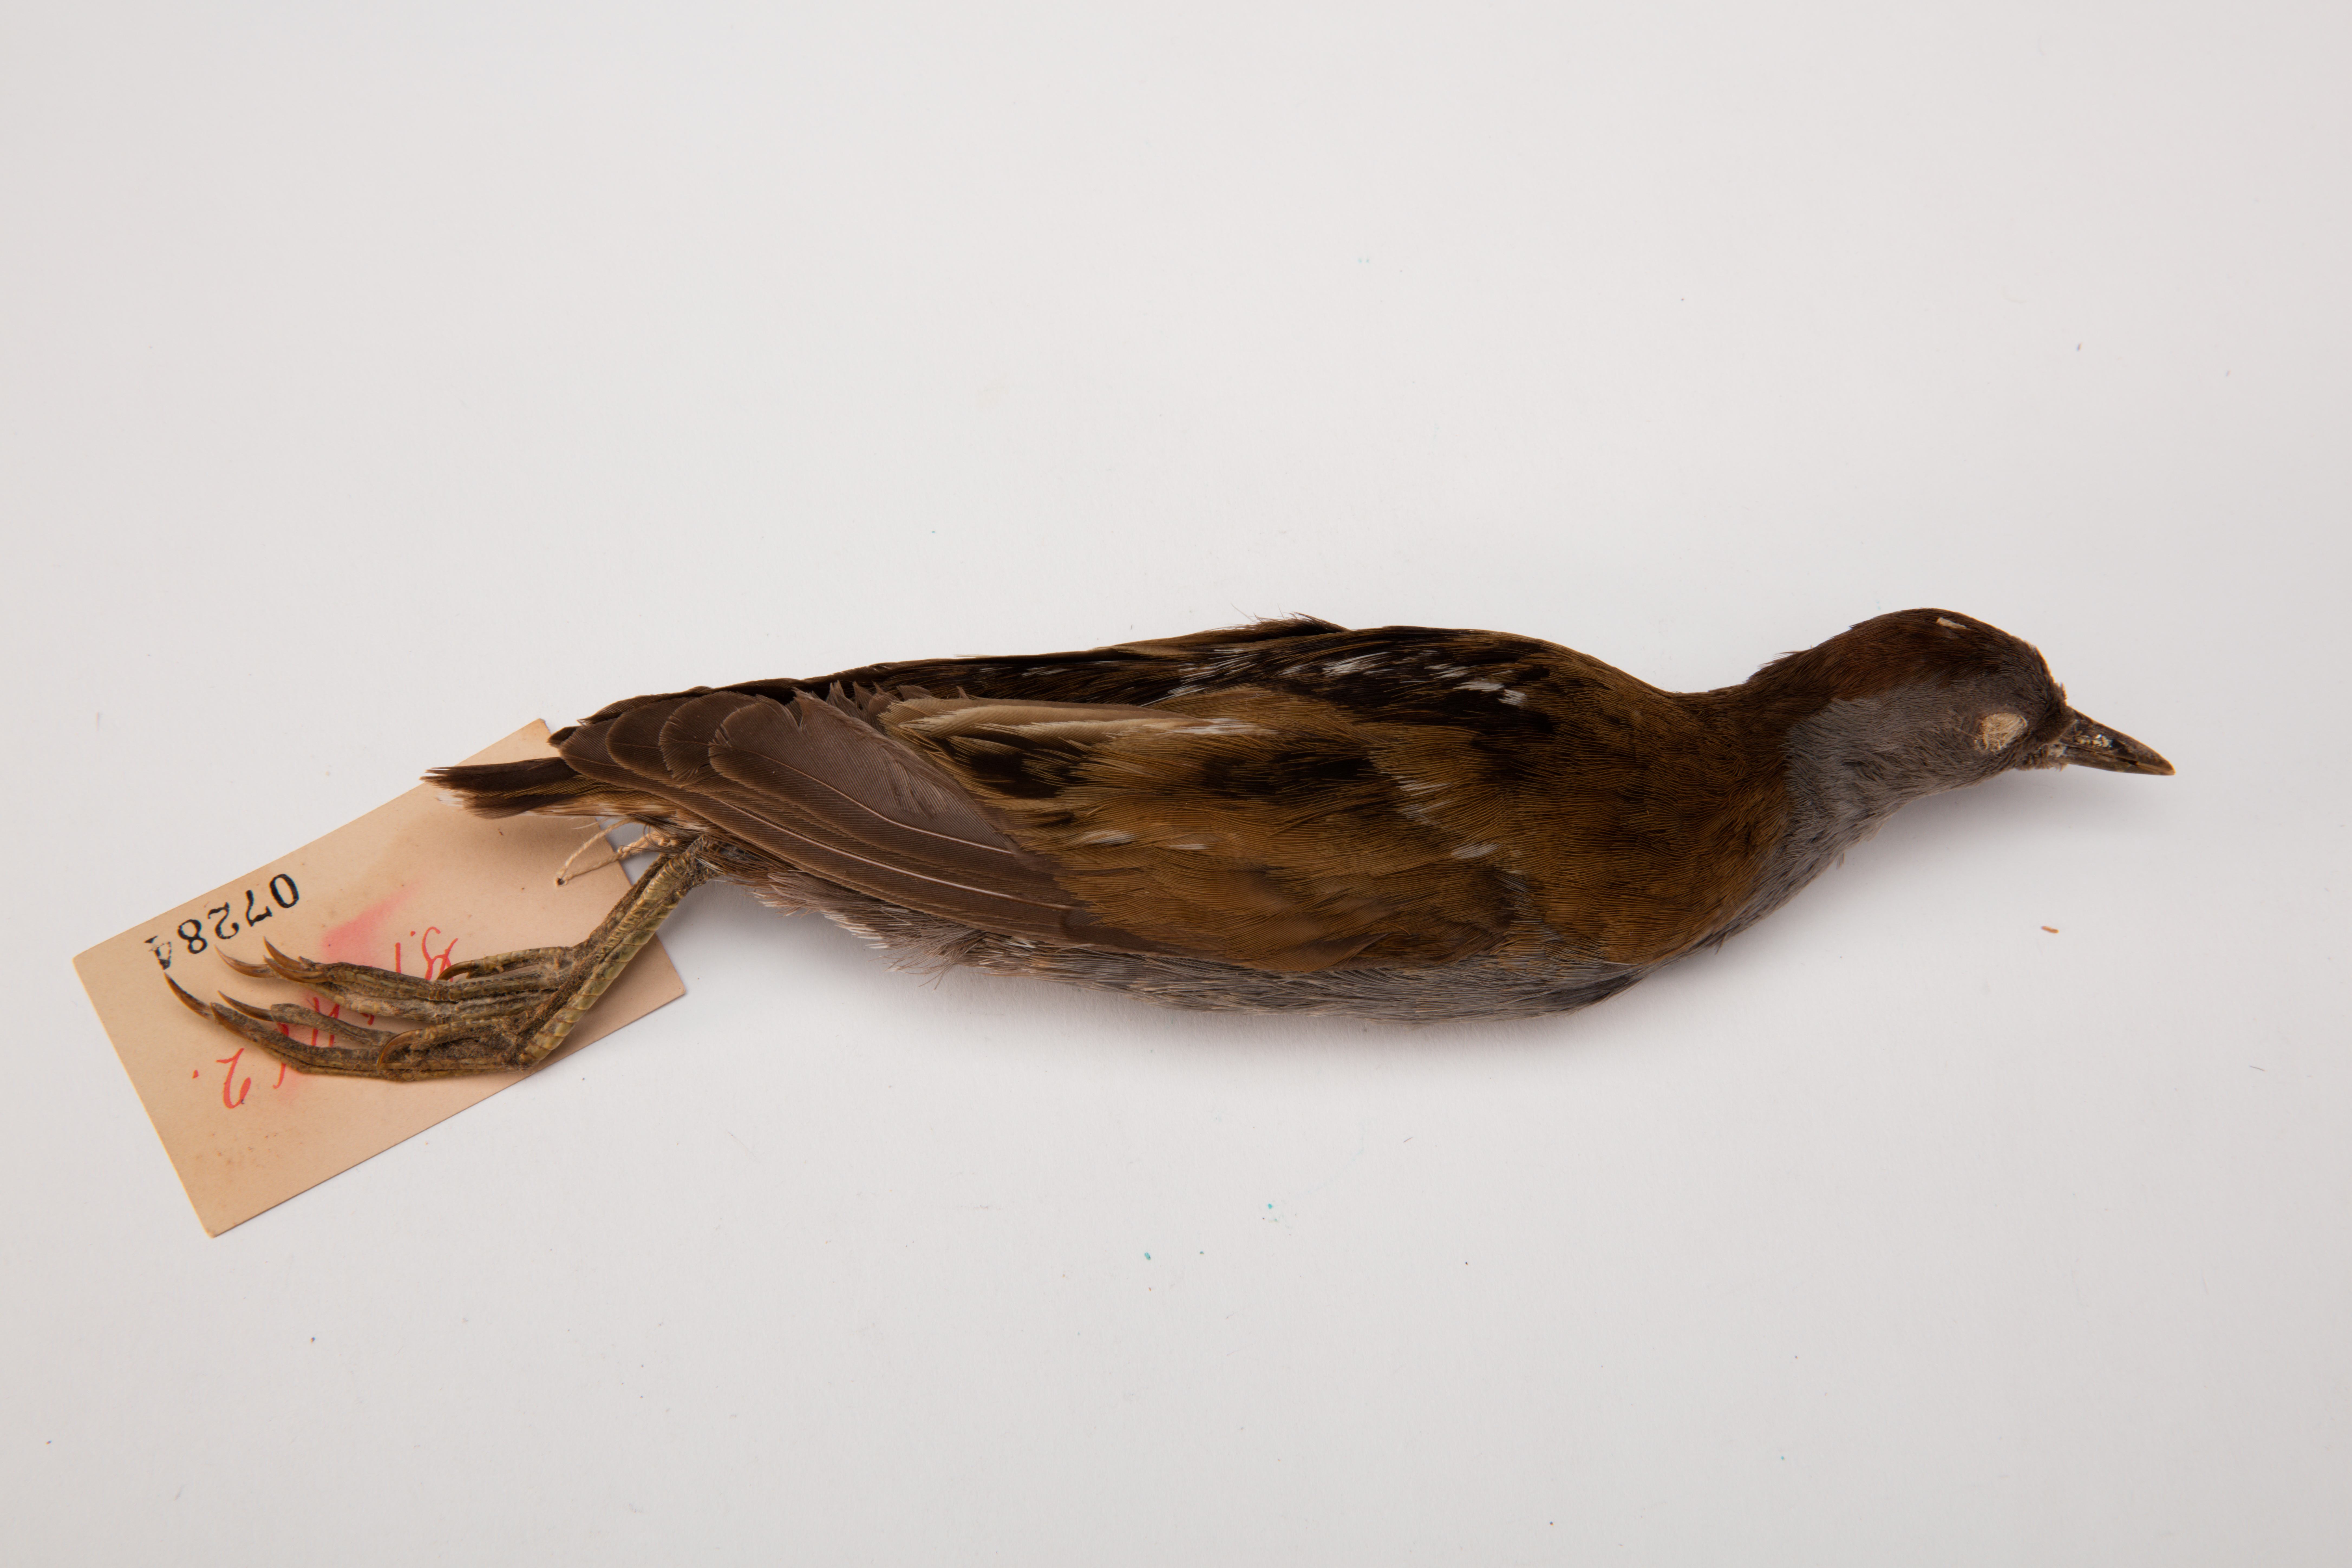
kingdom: Animalia
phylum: Chordata
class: Aves
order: Gruiformes
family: Rallidae
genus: Porzana
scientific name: Porzana parva
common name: Little crake
